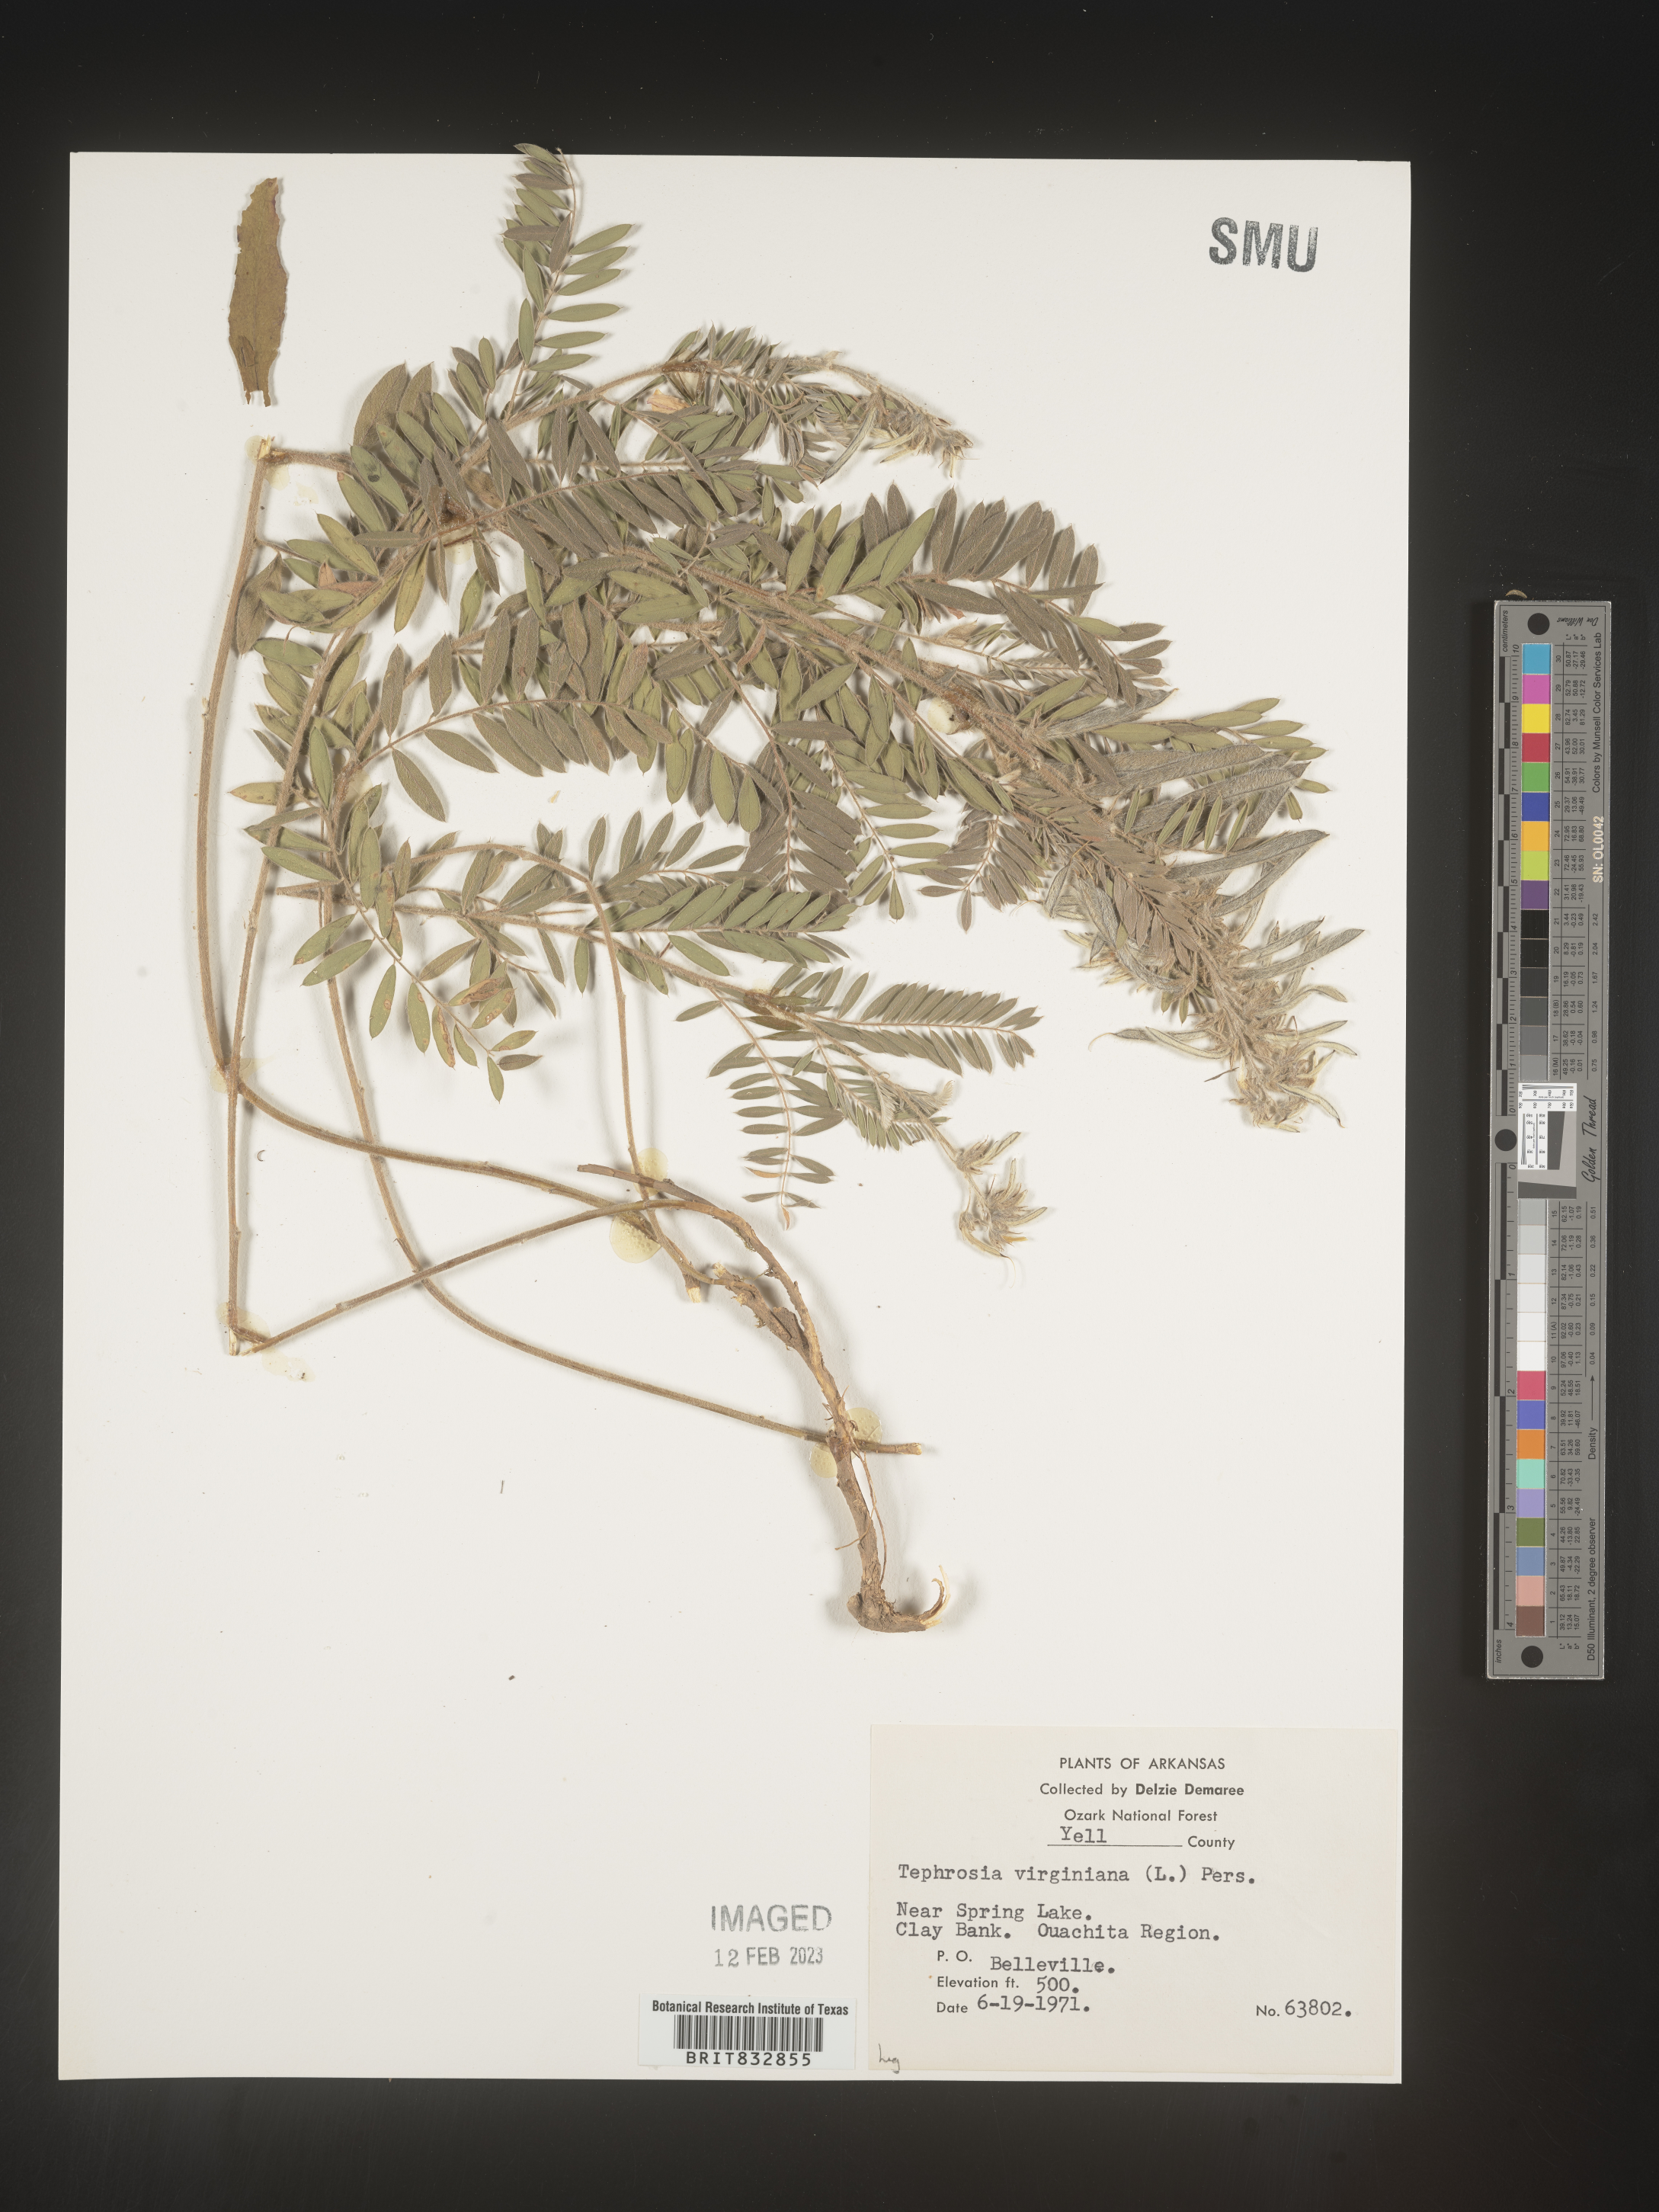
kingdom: Plantae
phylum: Tracheophyta
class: Magnoliopsida
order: Fabales
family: Fabaceae
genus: Tephrosia
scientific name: Tephrosia virginiana
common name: Rabbit-pea
